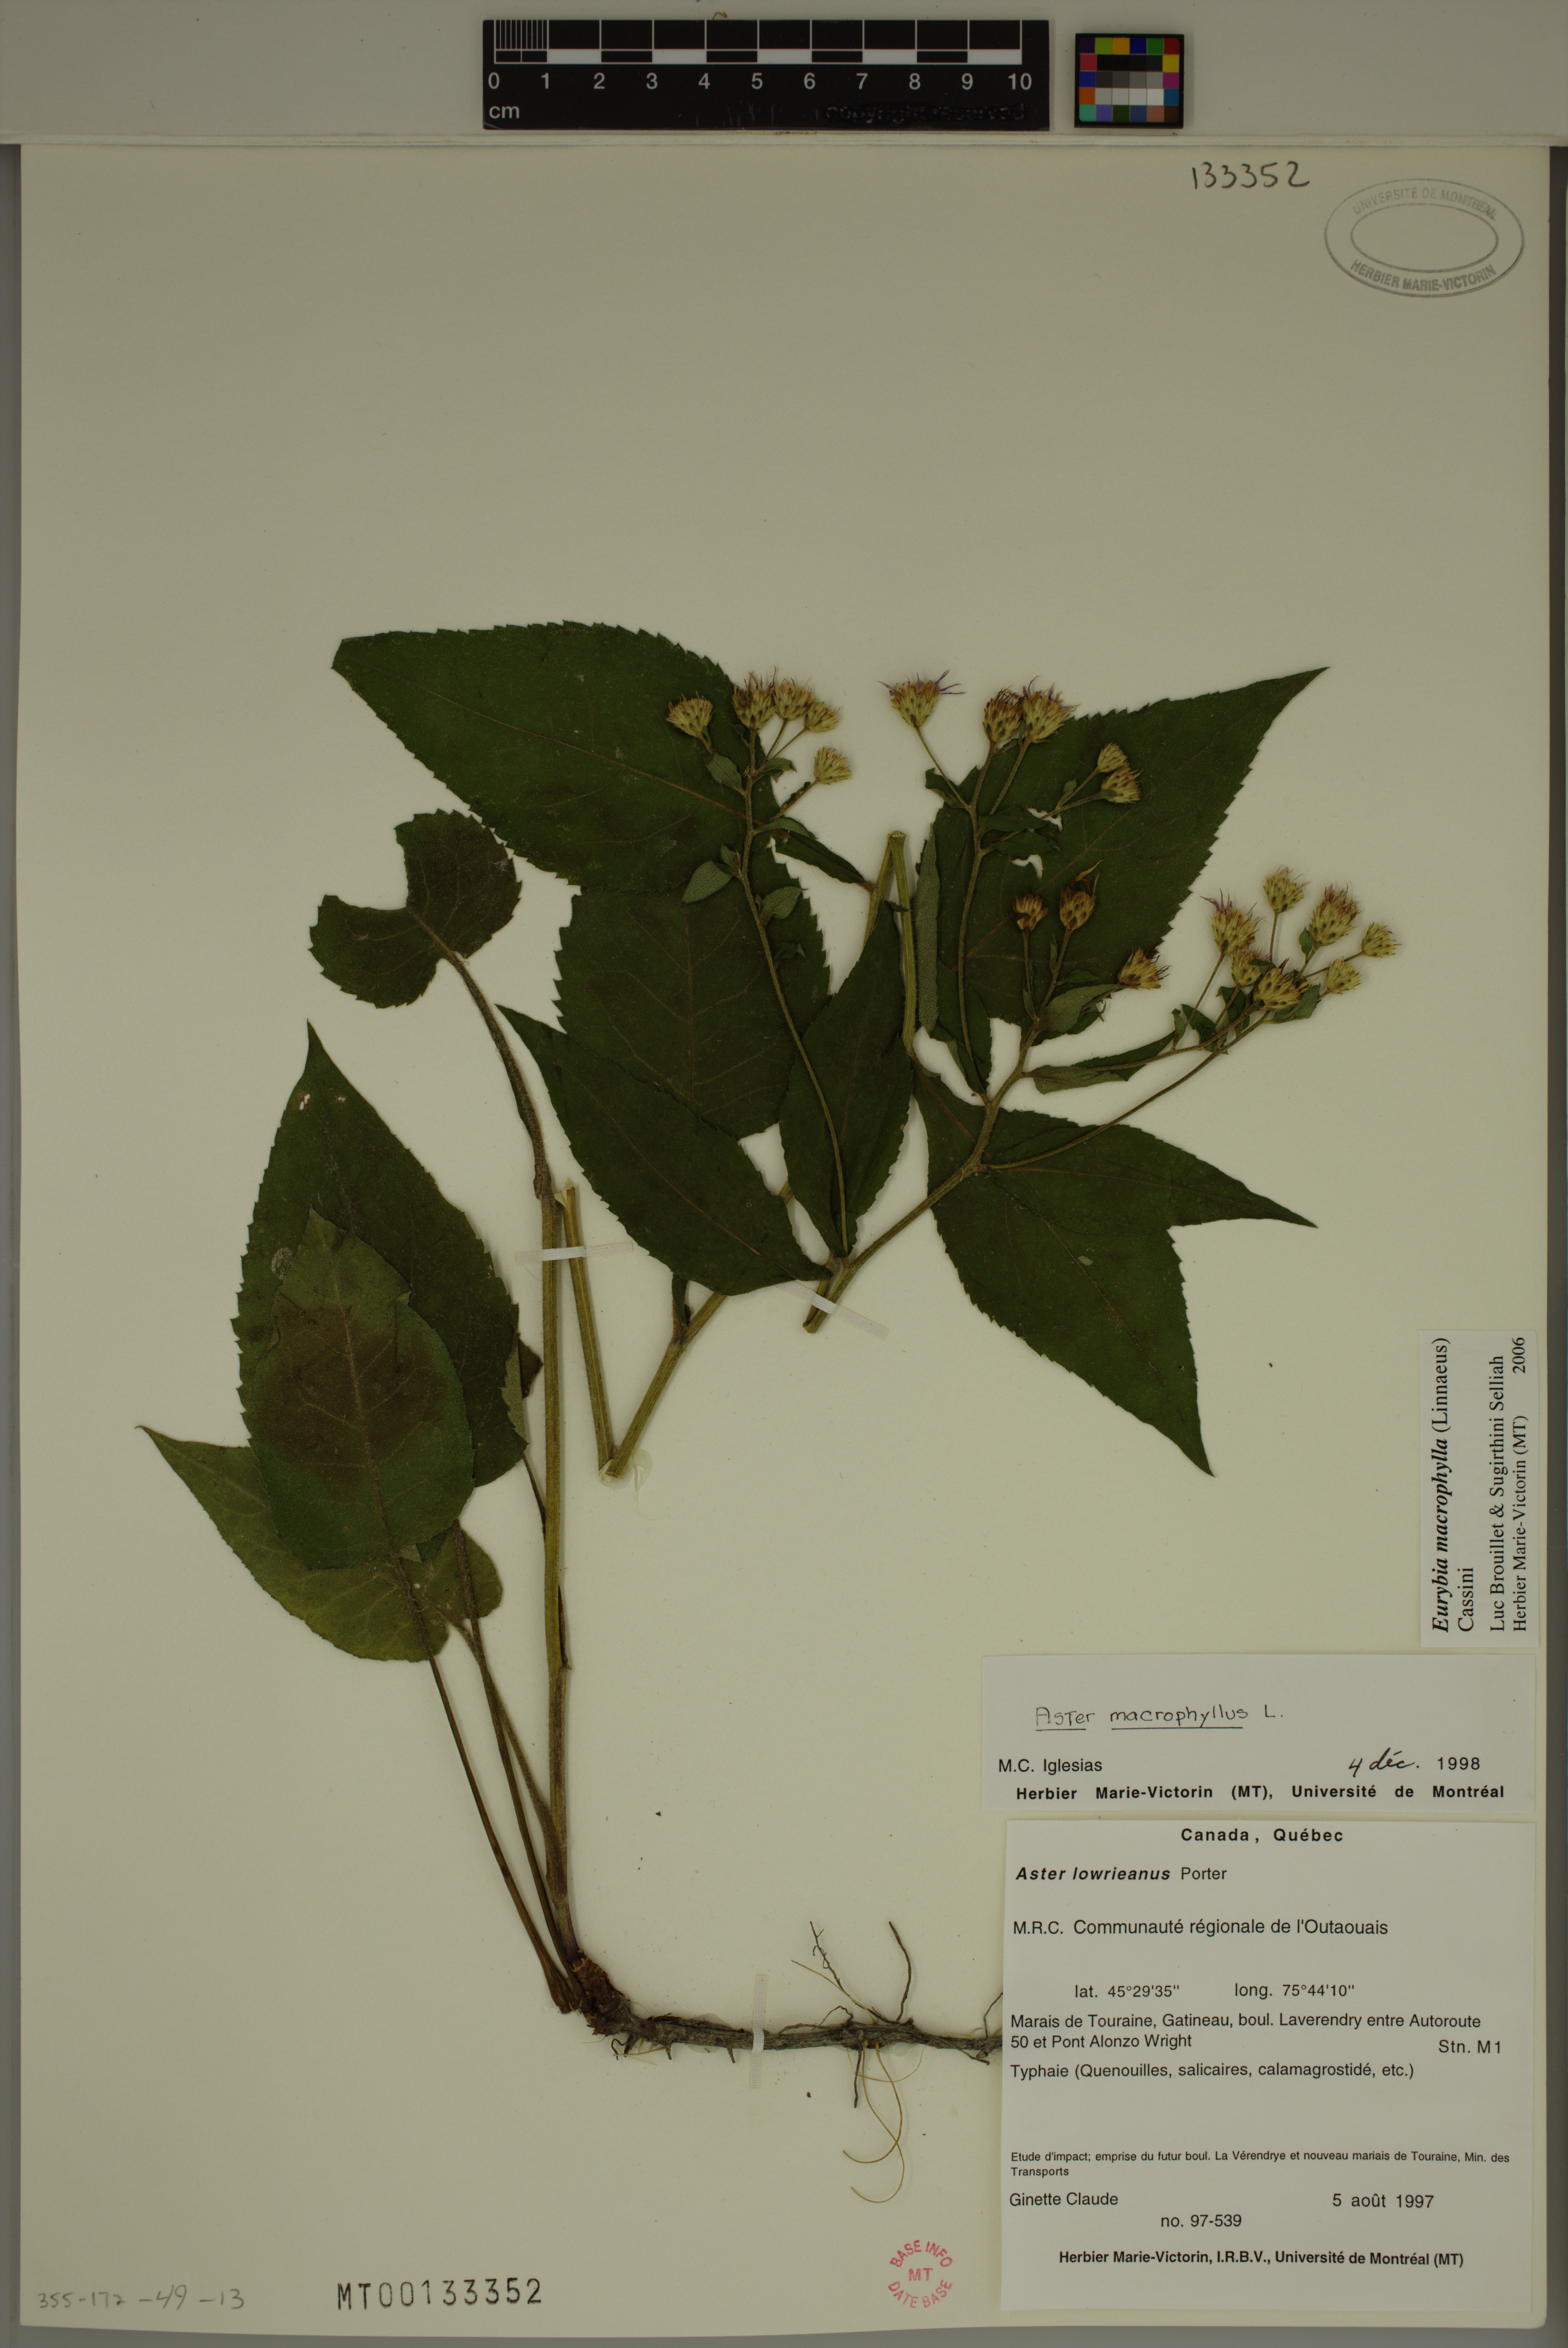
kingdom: Plantae
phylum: Tracheophyta
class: Magnoliopsida
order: Asterales
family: Asteraceae
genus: Eurybia
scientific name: Eurybia macrophylla
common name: Big-leaved aster
